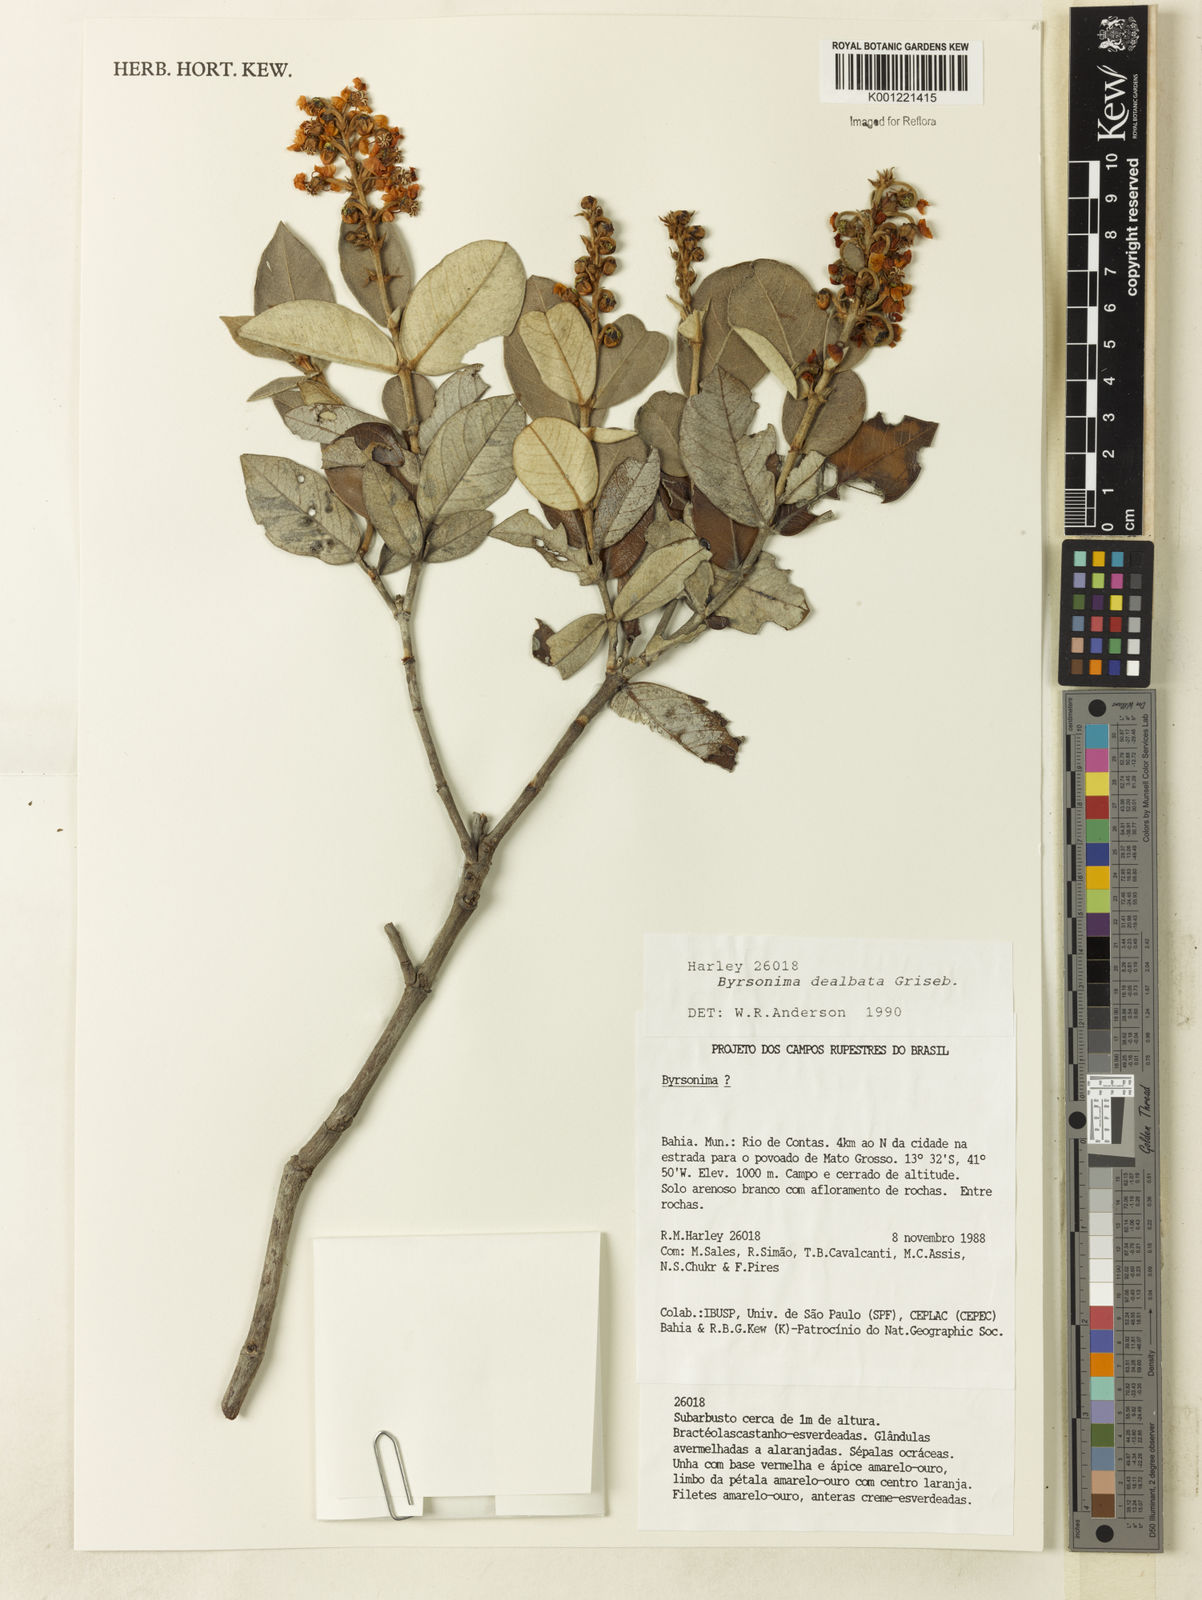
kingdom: Plantae
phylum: Tracheophyta
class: Magnoliopsida
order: Malpighiales
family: Malpighiaceae
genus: Byrsonima
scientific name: Byrsonima dealbata
